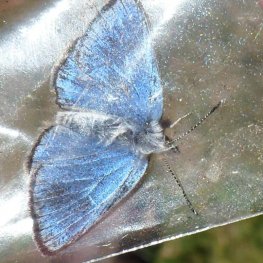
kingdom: Animalia
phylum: Arthropoda
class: Insecta
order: Lepidoptera
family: Lycaenidae
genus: Glaucopsyche
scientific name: Glaucopsyche lygdamus
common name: Silvery Blue
